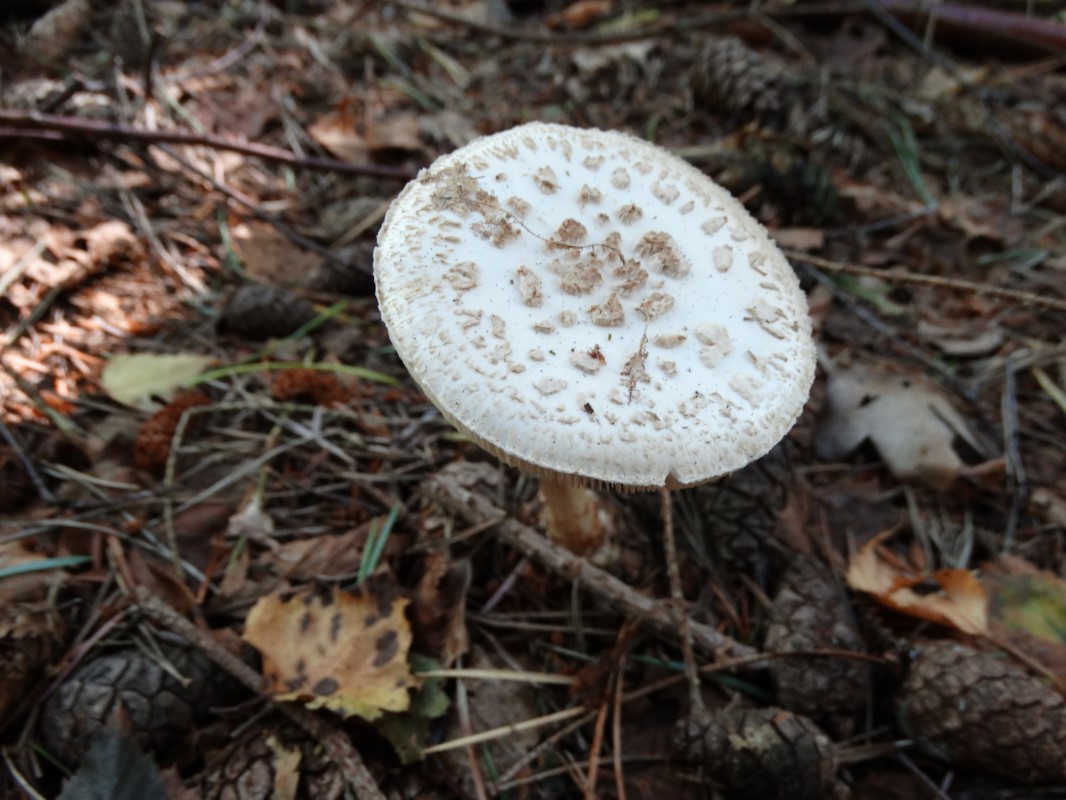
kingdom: Fungi
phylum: Basidiomycota
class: Agaricomycetes
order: Agaricales
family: Amanitaceae
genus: Amanita
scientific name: Amanita citrina
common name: False death-cap
